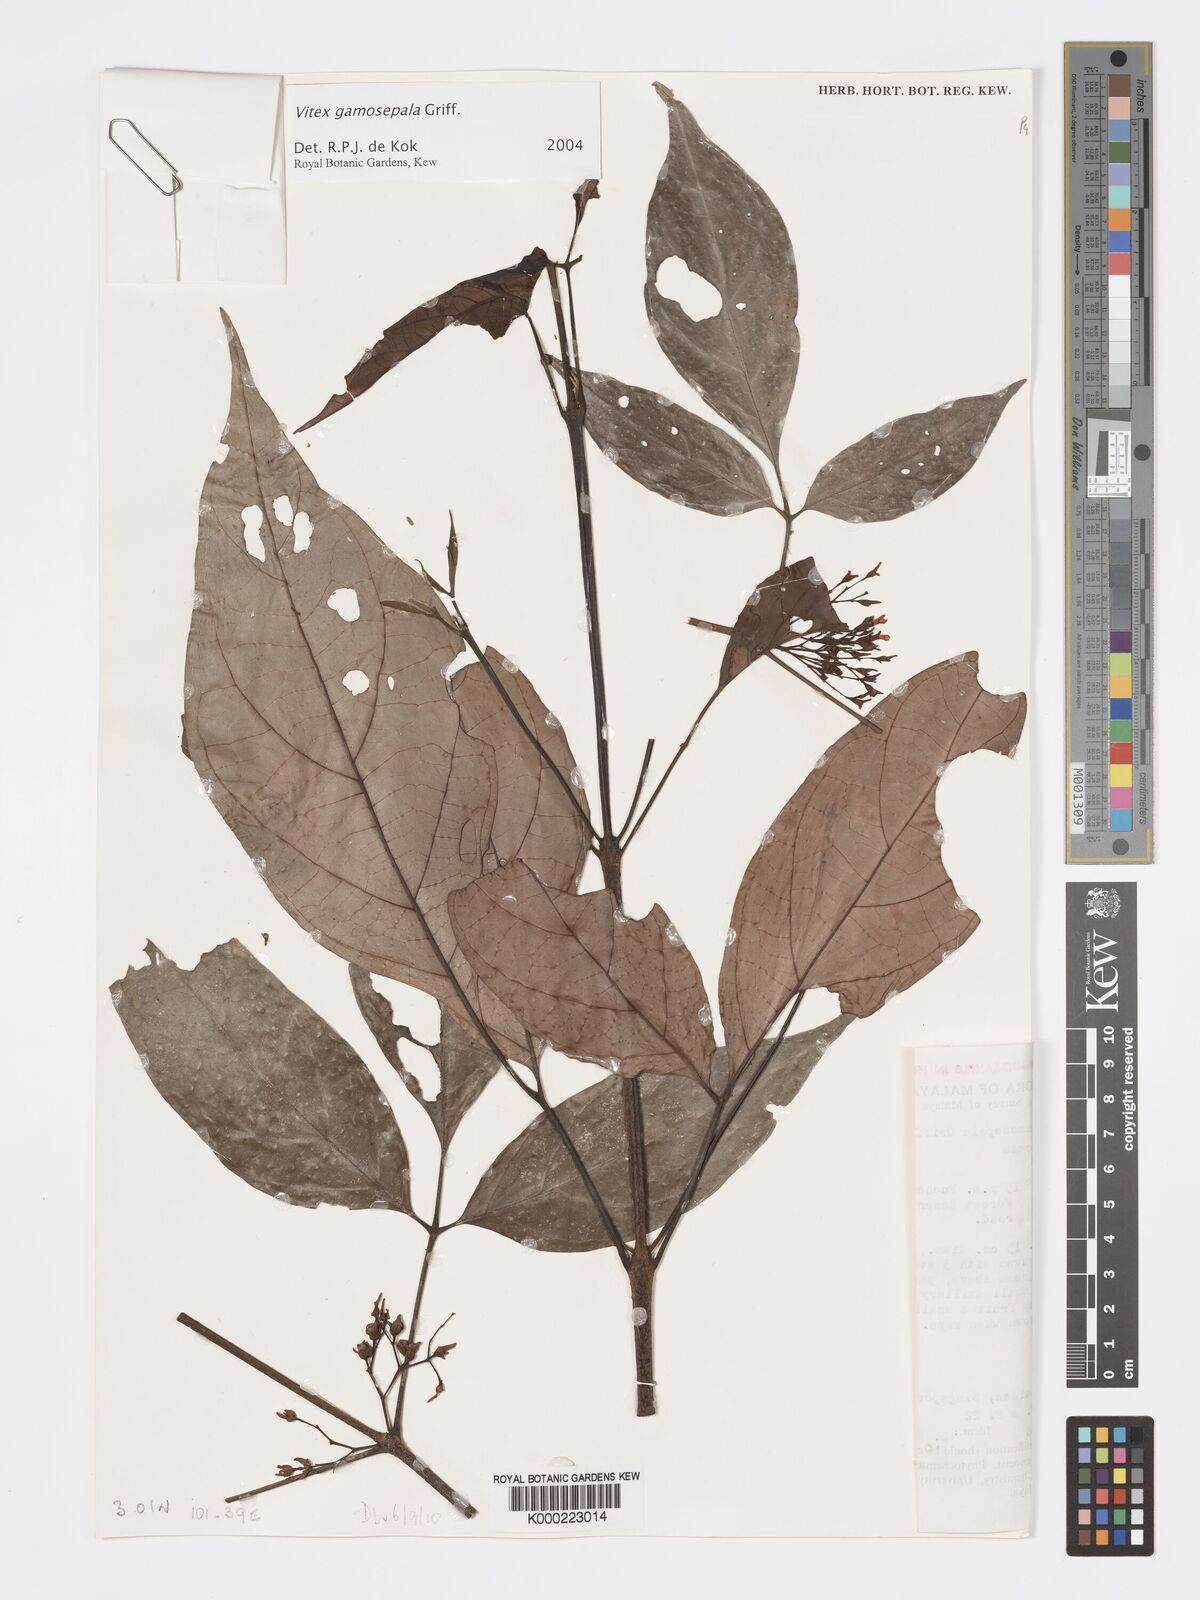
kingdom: Plantae
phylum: Tracheophyta
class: Magnoliopsida
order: Lamiales
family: Lamiaceae
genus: Vitex
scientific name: Vitex gamosepala
